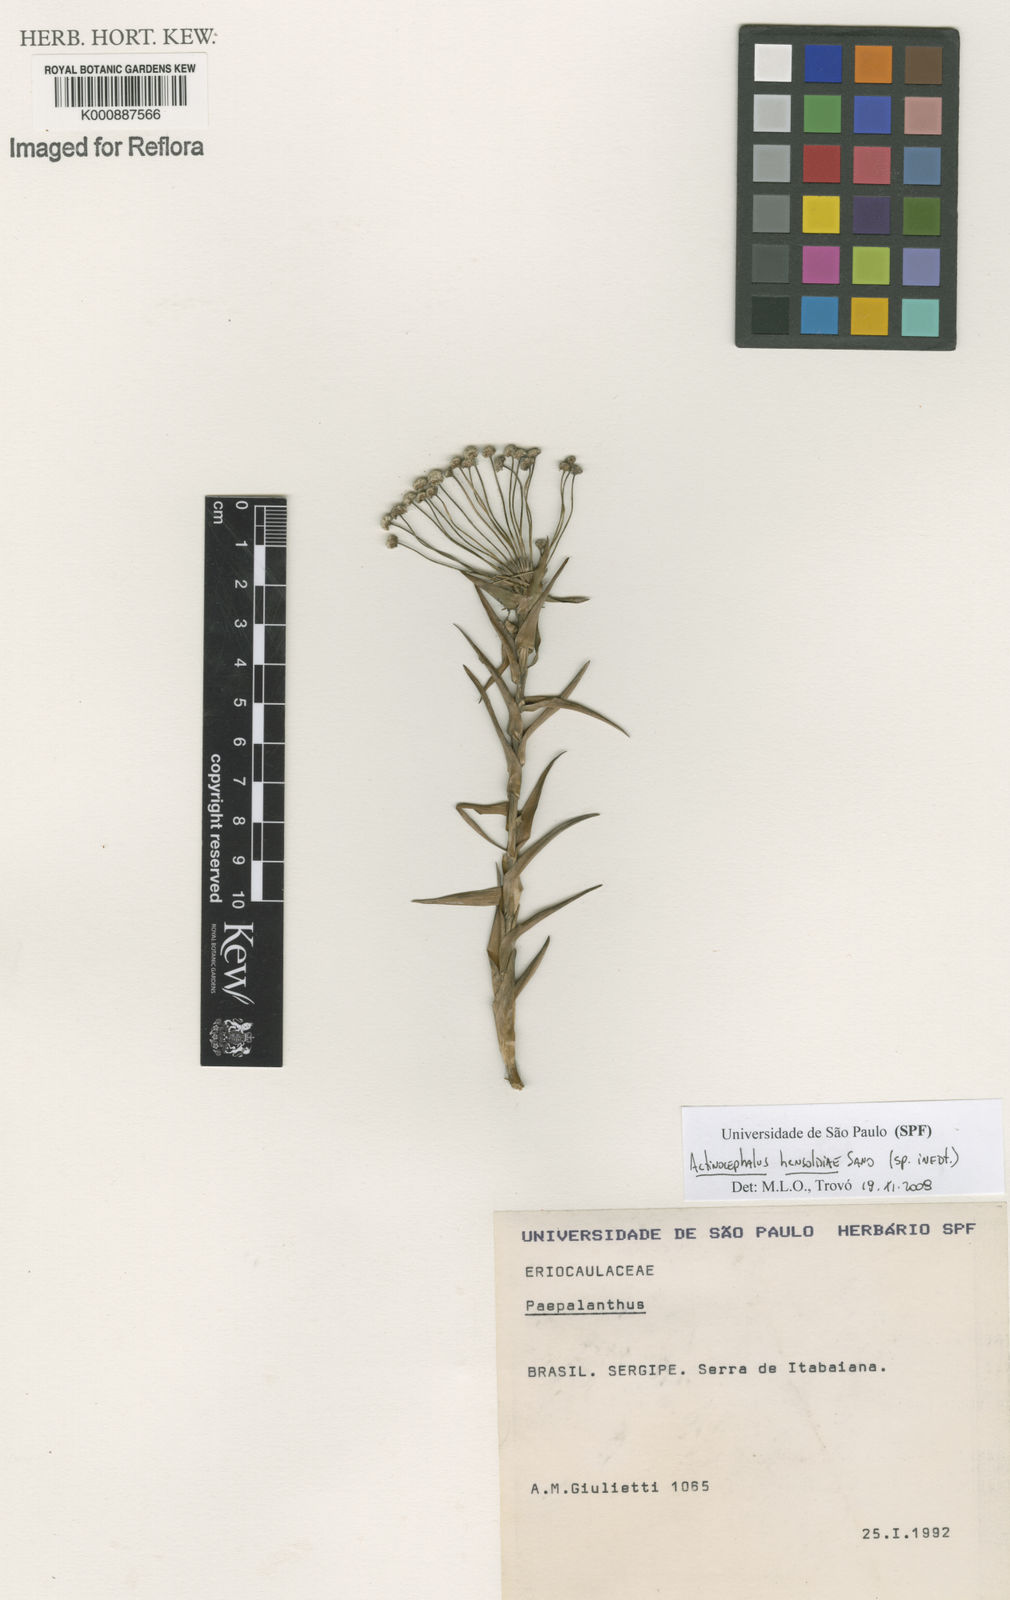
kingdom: Plantae
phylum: Tracheophyta
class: Liliopsida
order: Poales
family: Eriocaulaceae
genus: Paepalanthus
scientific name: Paepalanthus
